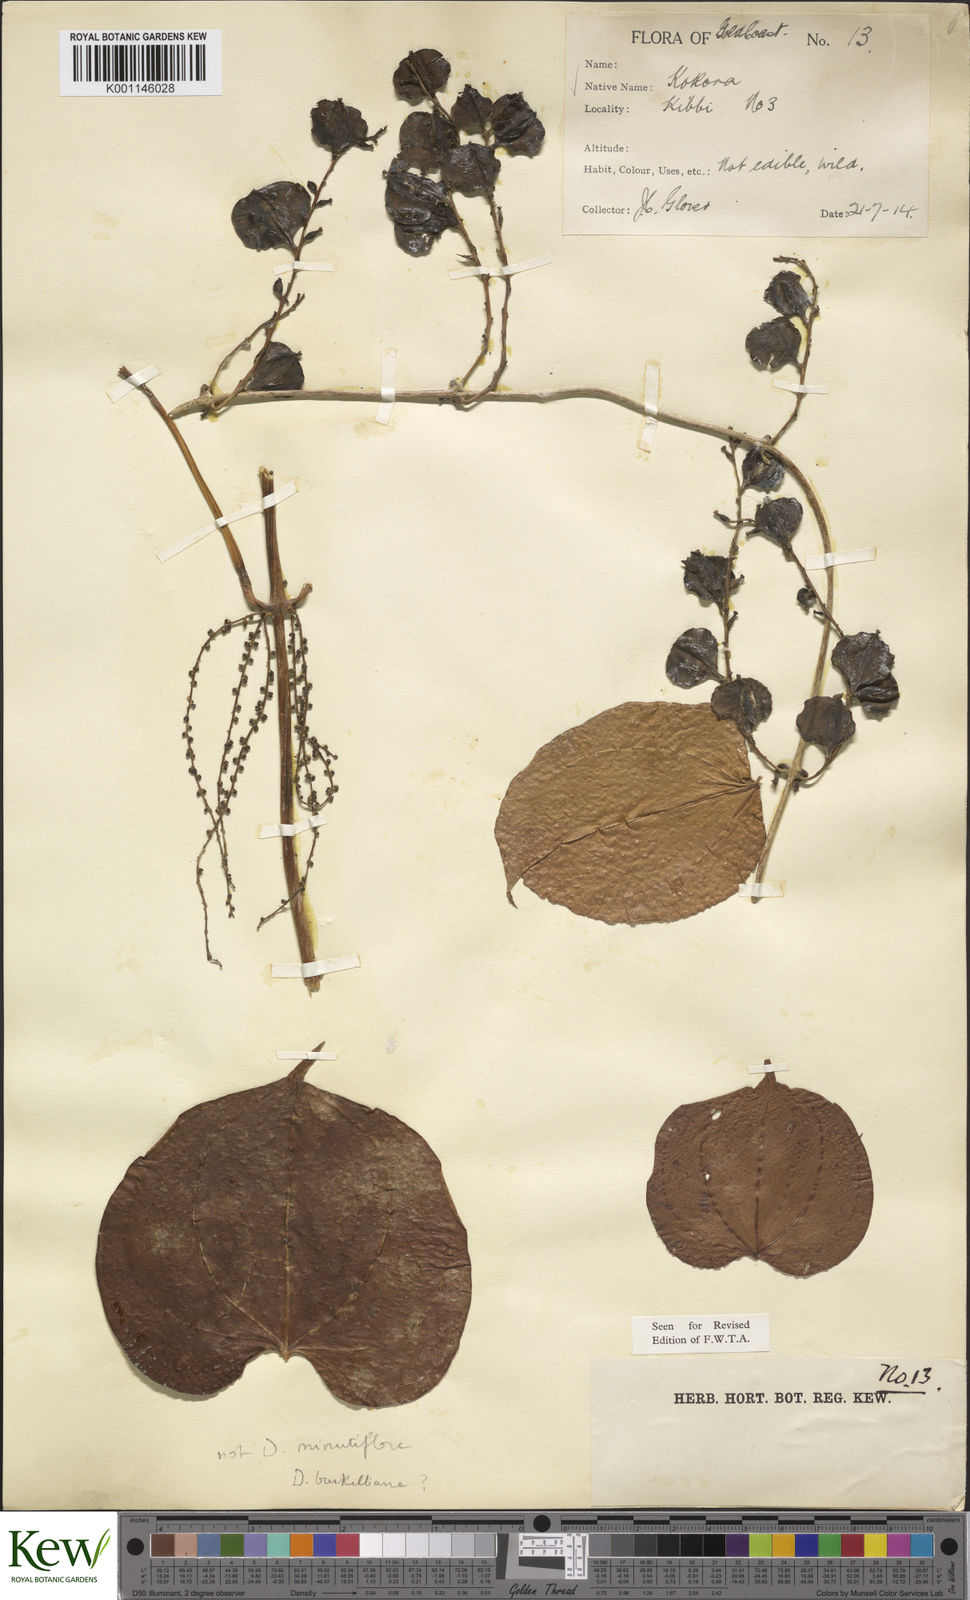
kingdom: Plantae
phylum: Tracheophyta
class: Liliopsida
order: Dioscoreales
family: Dioscoreaceae
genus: Dioscorea
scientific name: Dioscorea minutiflora
